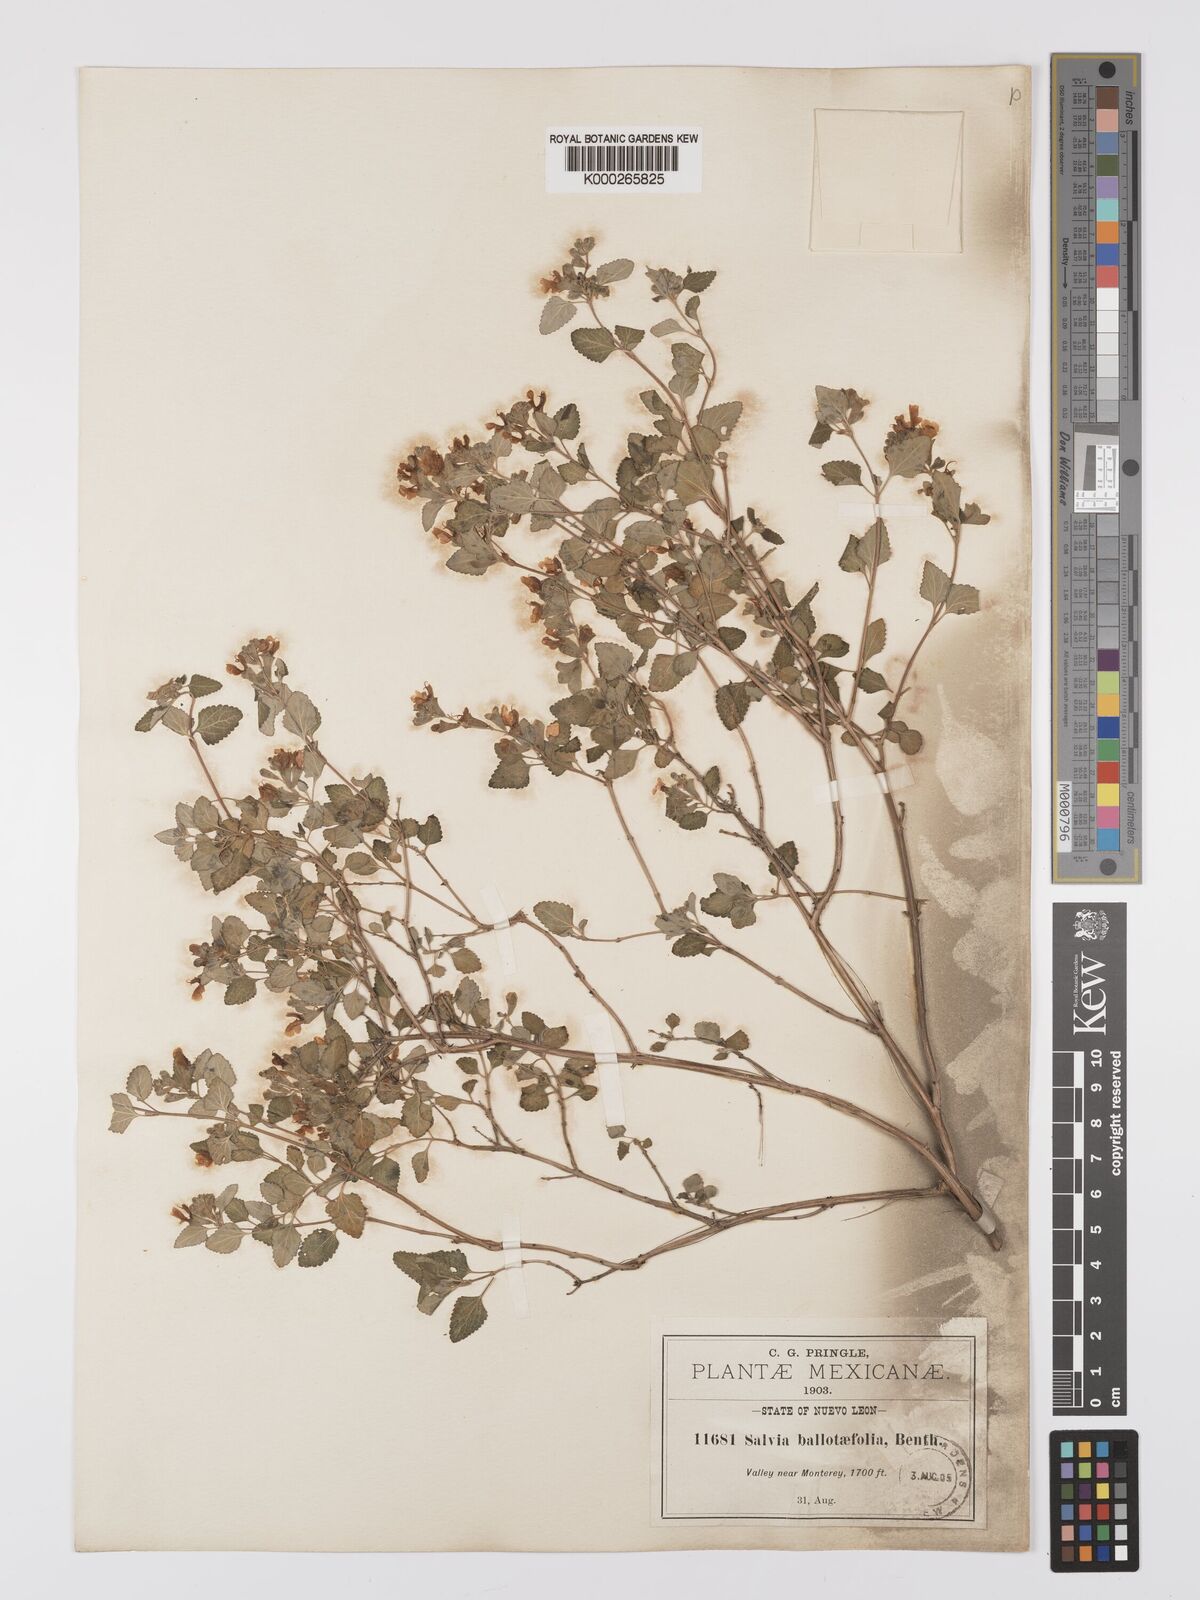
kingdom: Plantae
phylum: Tracheophyta
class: Magnoliopsida
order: Lamiales
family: Lamiaceae
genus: Salvia
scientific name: Salvia ballotiflora
